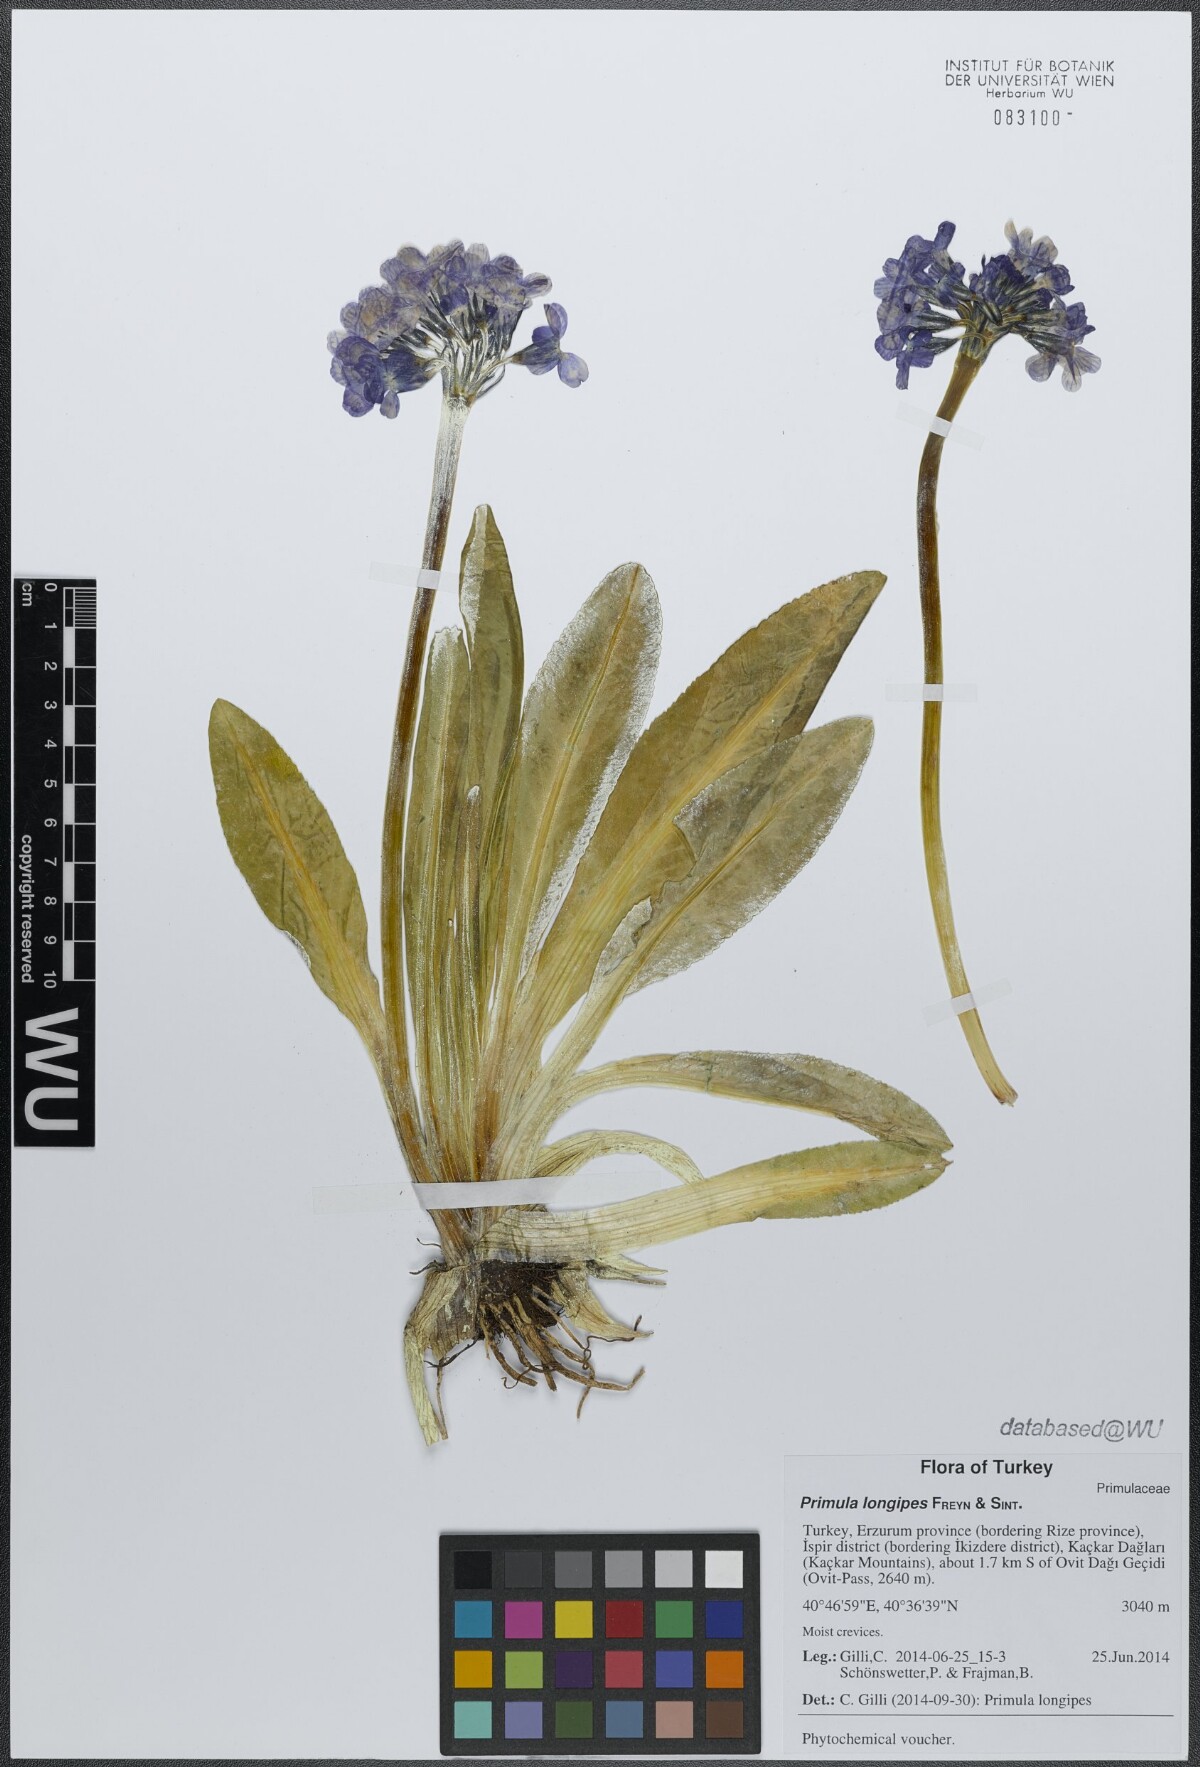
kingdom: Plantae
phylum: Tracheophyta
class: Magnoliopsida
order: Ericales
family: Primulaceae
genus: Primula
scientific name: Primula longipes
